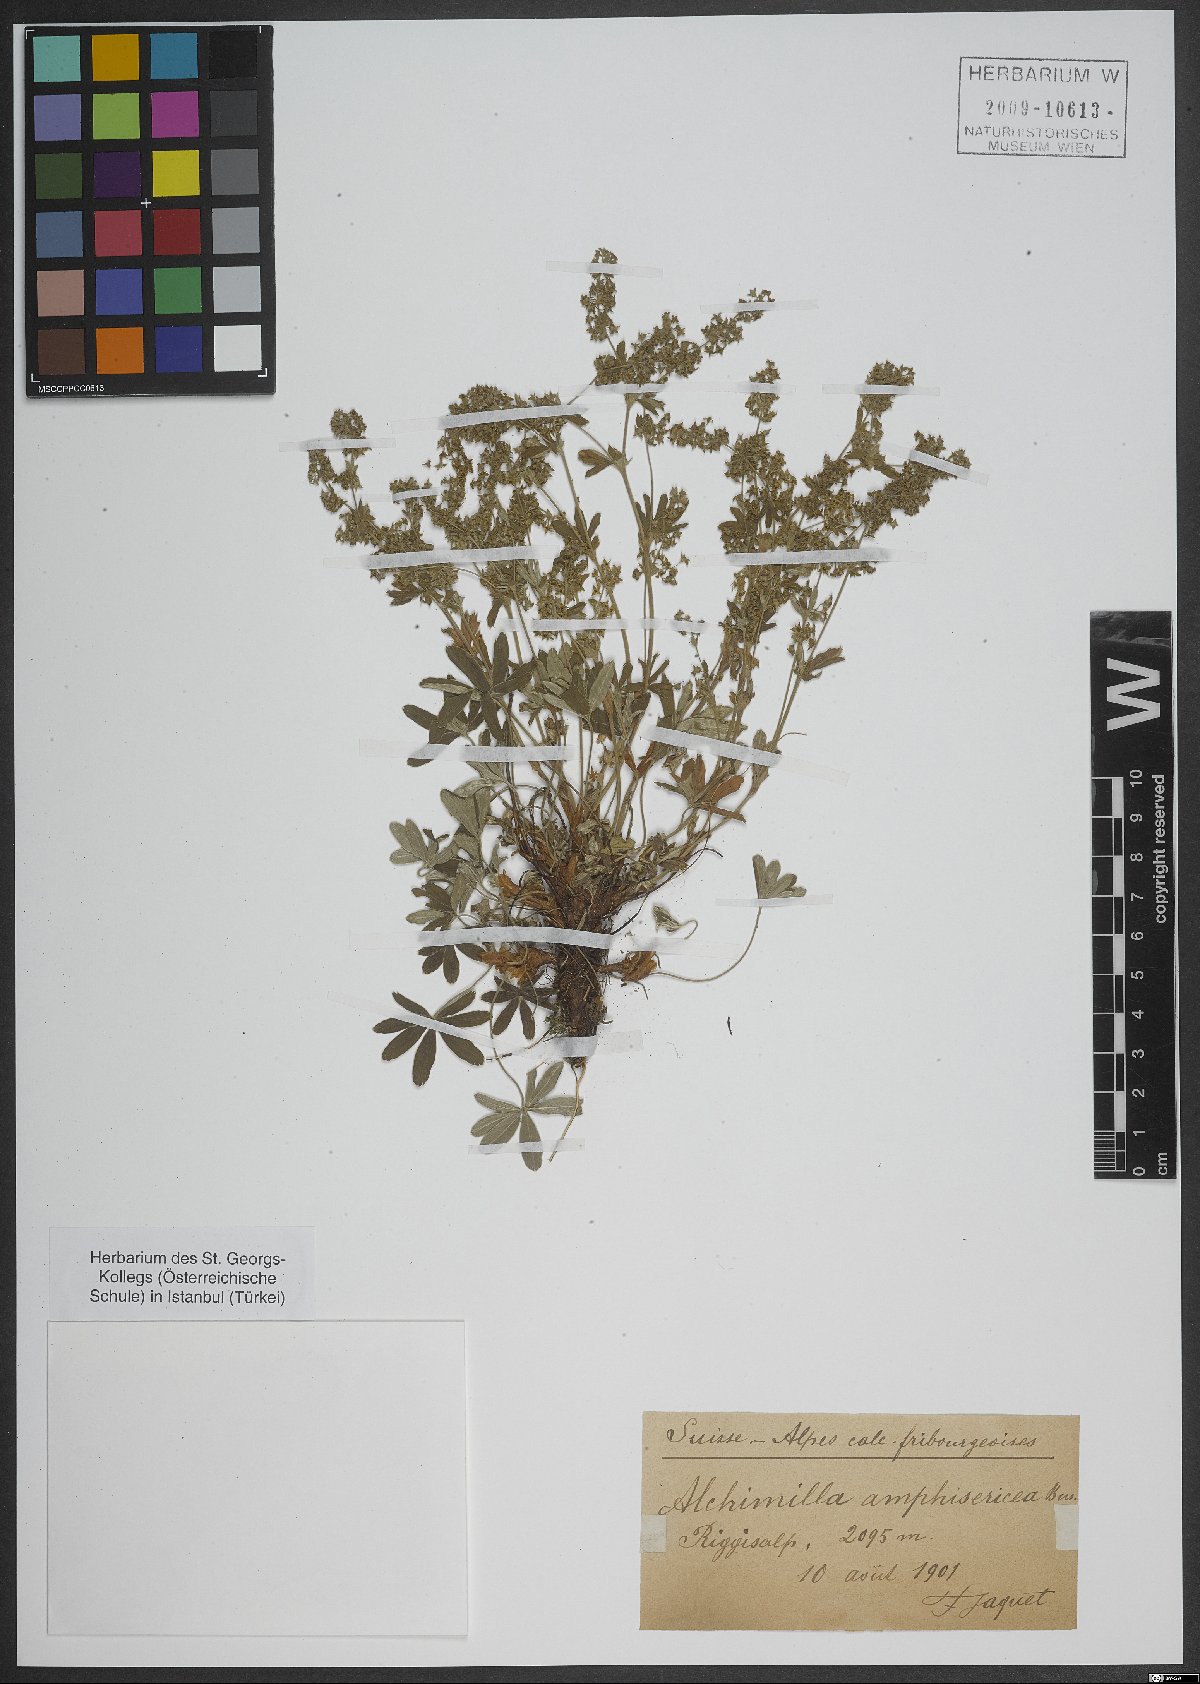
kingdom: Plantae
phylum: Tracheophyta
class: Magnoliopsida
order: Rosales
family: Rosaceae
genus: Alchemilla
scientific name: Alchemilla amphisericea
